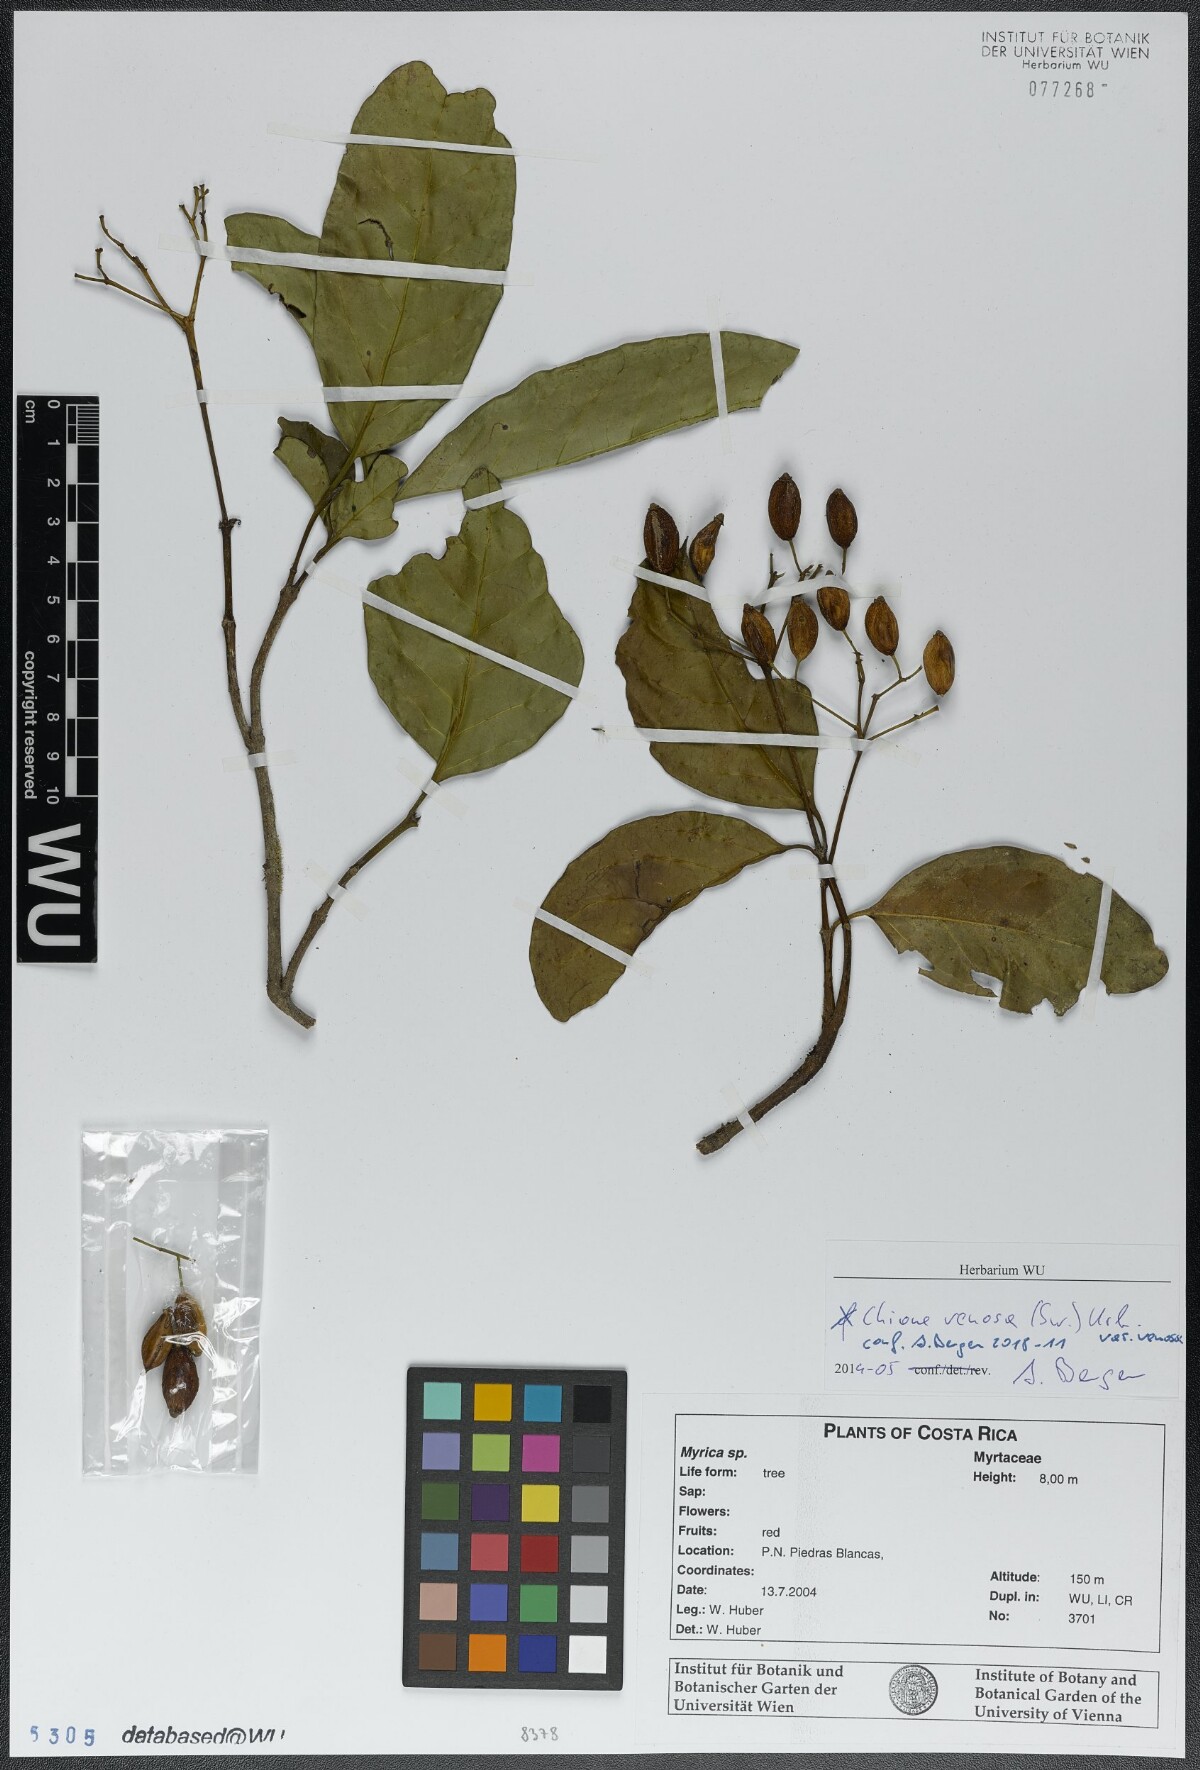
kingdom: Plantae
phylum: Tracheophyta
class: Magnoliopsida
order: Gentianales
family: Rubiaceae
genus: Chione
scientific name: Chione venosa
